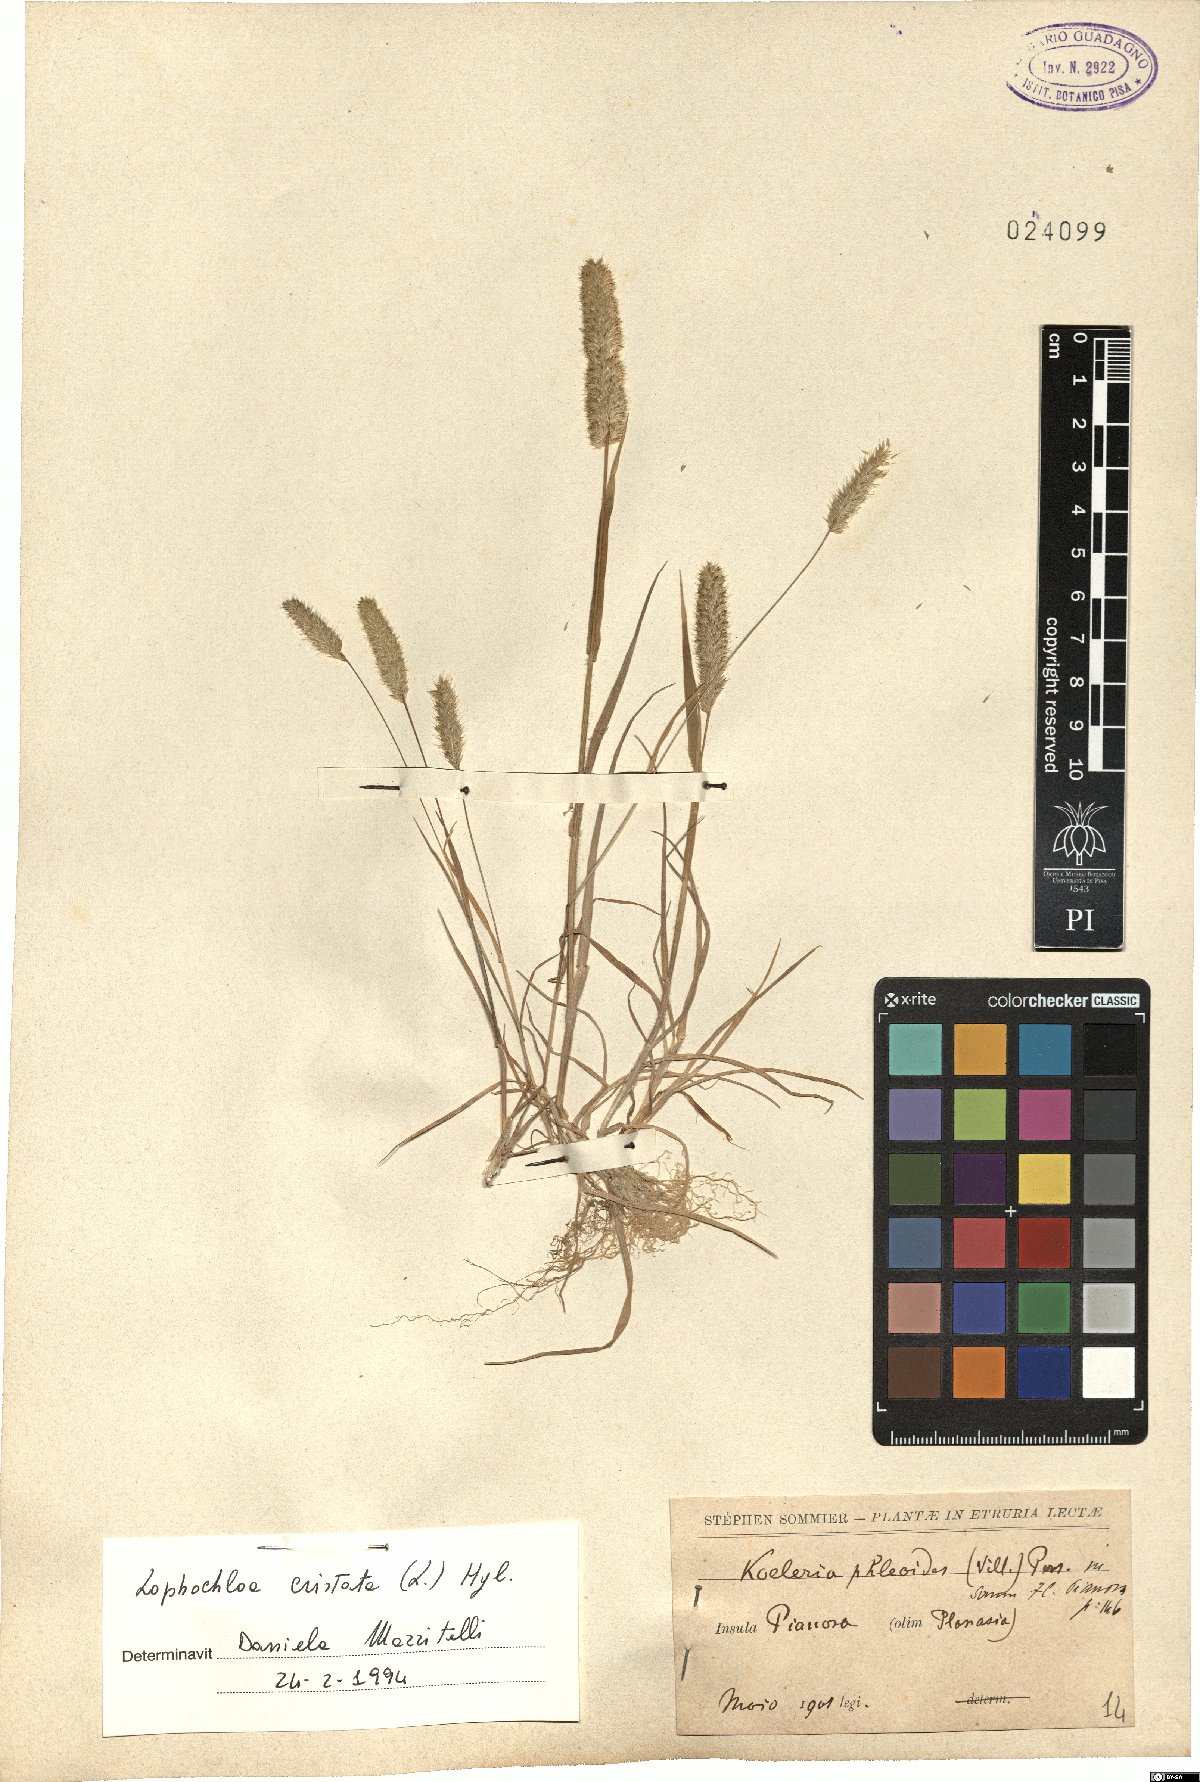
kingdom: Plantae
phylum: Tracheophyta
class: Liliopsida
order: Poales
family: Poaceae
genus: Rostraria
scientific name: Rostraria cristata
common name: Mediterranean hair-grass
